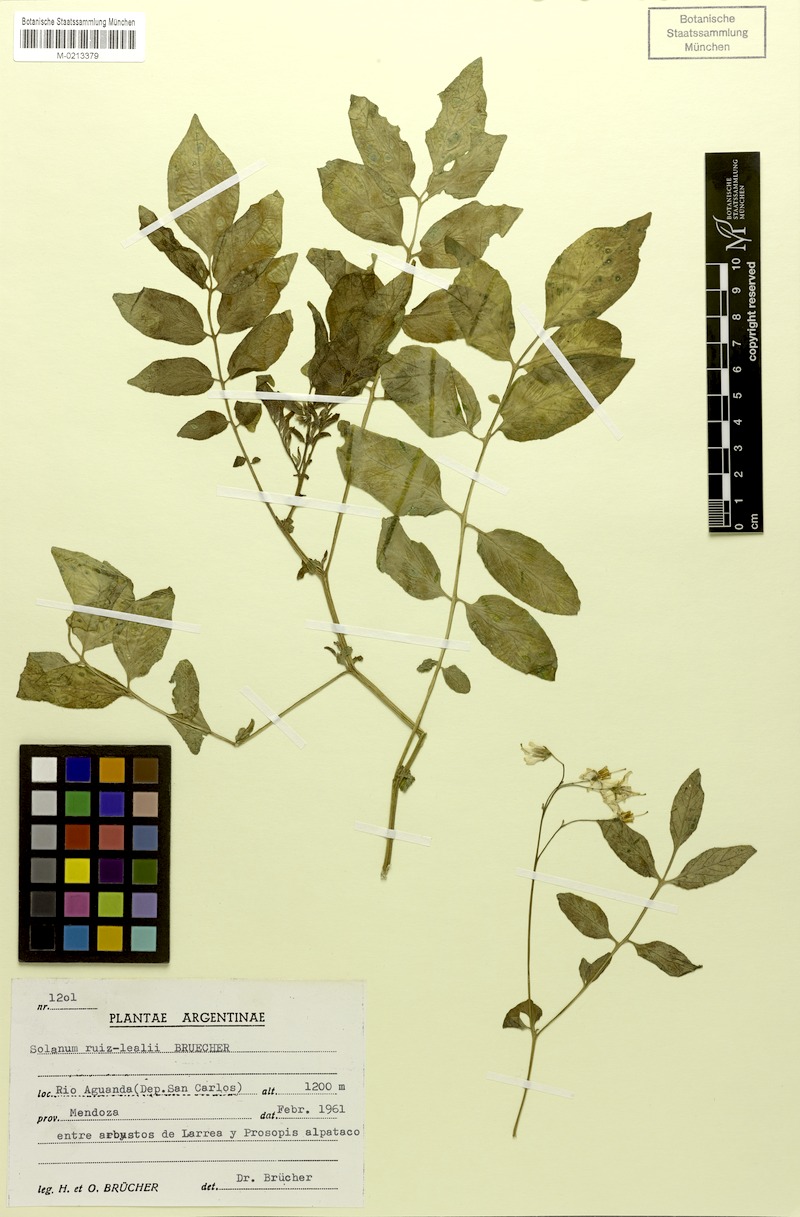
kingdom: Plantae
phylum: Tracheophyta
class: Magnoliopsida
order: Solanales
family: Solanaceae
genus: Solanum
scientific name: Solanum kurtzianum
